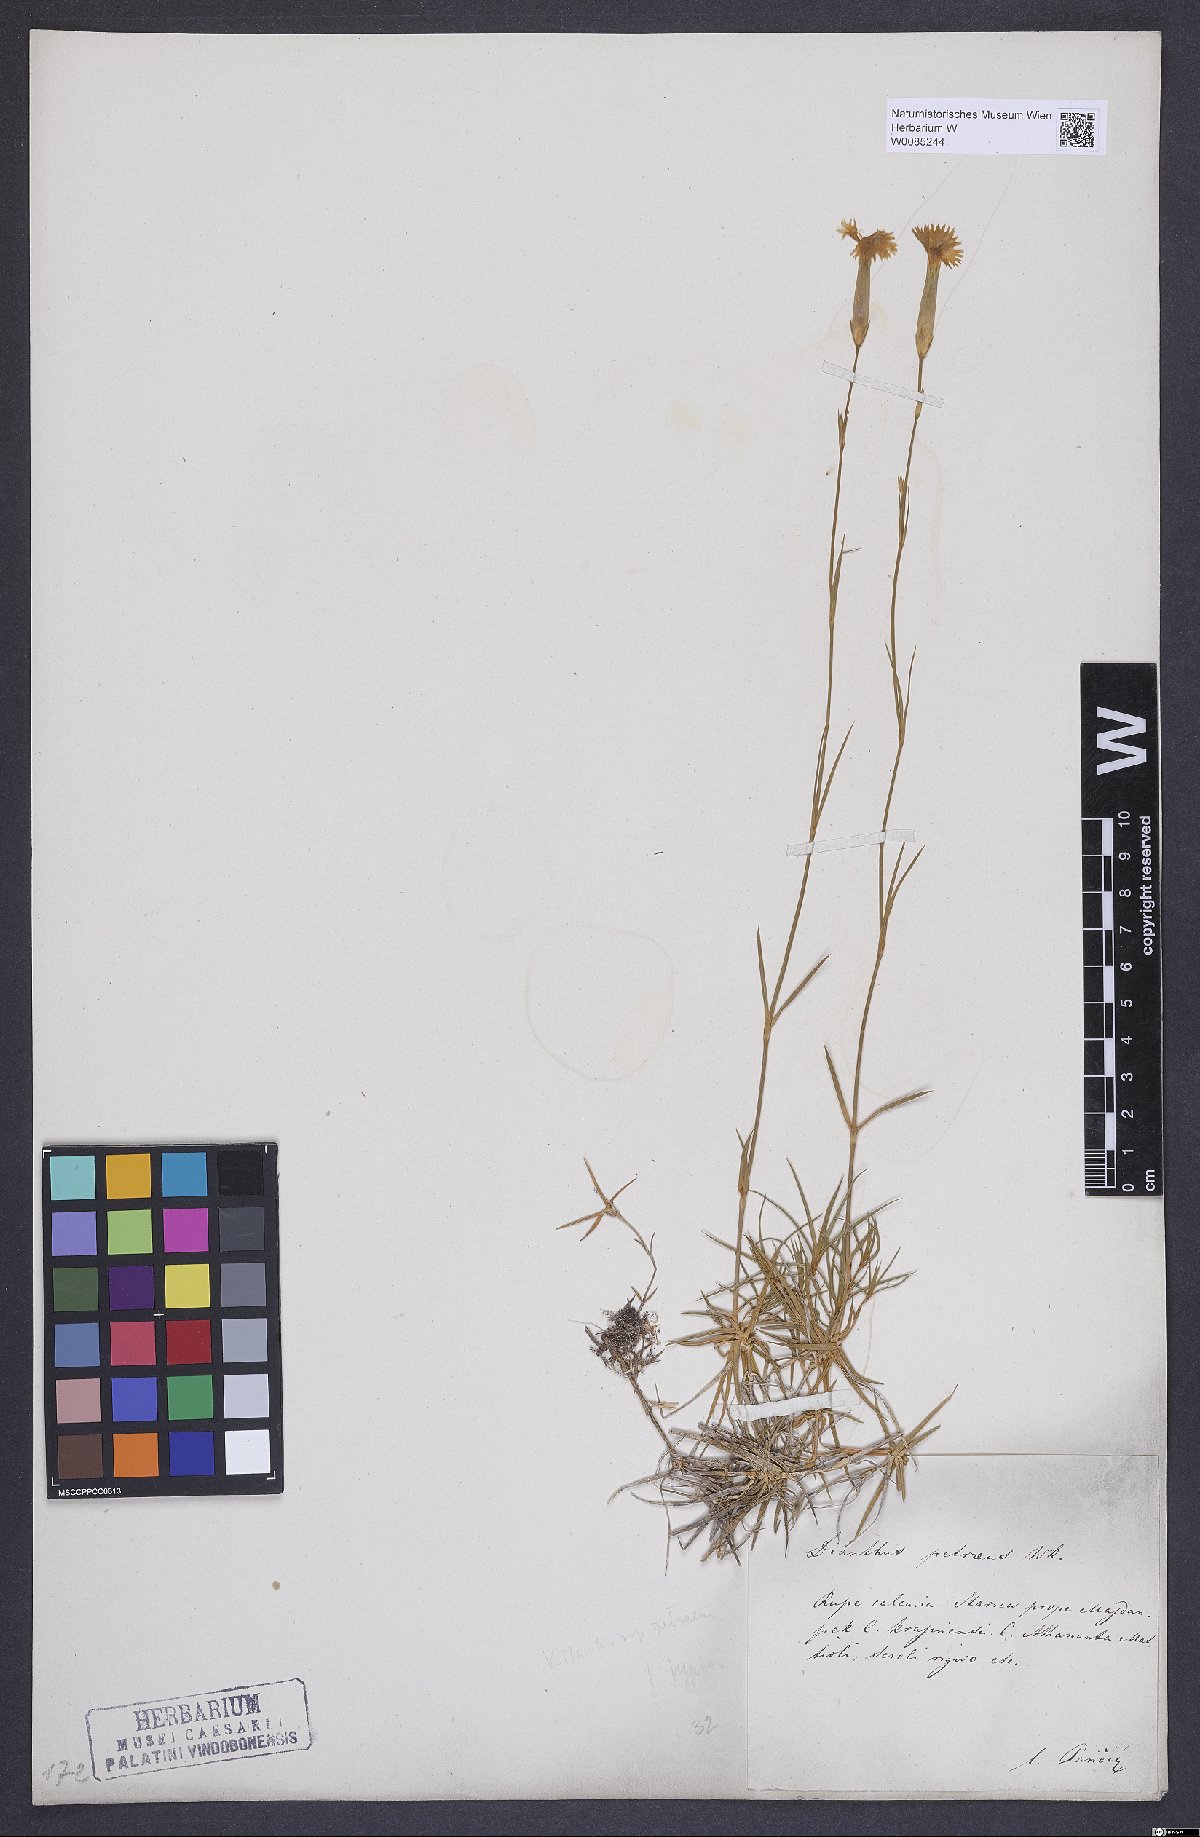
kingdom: Plantae
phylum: Tracheophyta
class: Magnoliopsida
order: Caryophyllales
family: Caryophyllaceae
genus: Dianthus
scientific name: Dianthus petraeus
